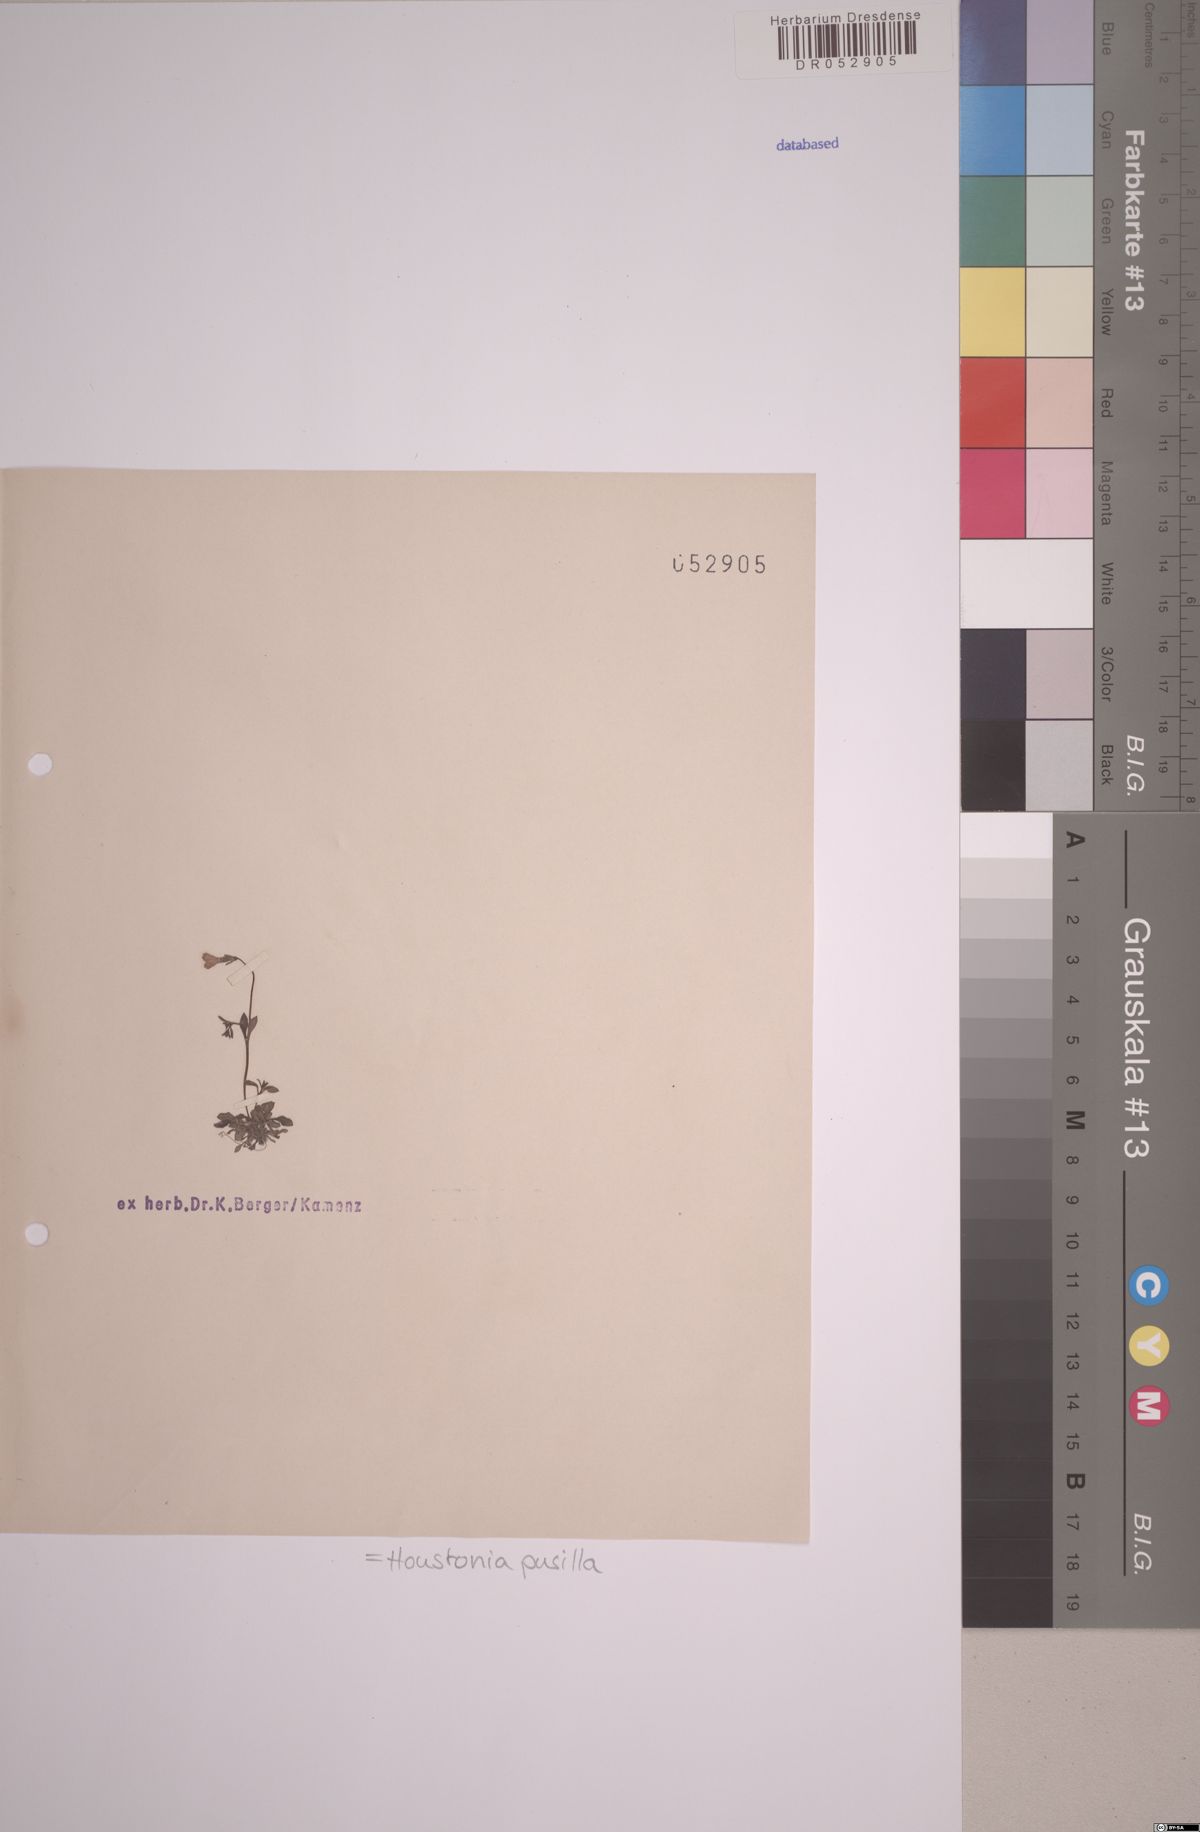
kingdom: Plantae
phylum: Tracheophyta
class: Magnoliopsida
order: Gentianales
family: Rubiaceae
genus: Houstonia
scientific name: Houstonia pusilla
